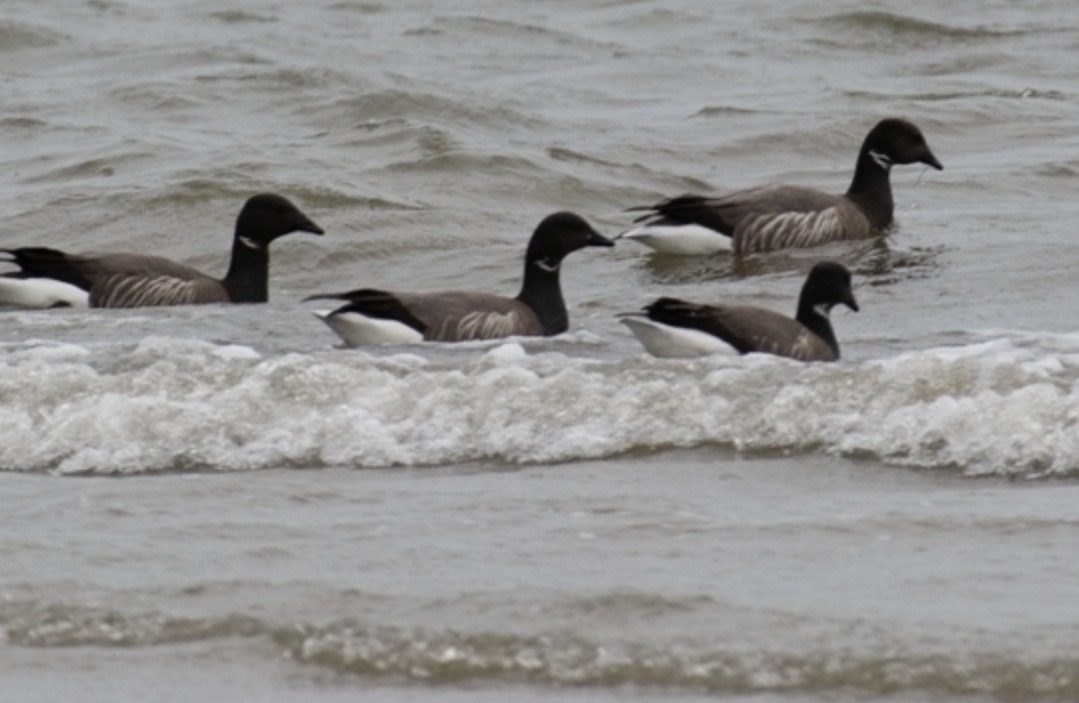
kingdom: Animalia
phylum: Chordata
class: Aves
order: Anseriformes
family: Anatidae
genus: Branta
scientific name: Branta bernicla
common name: Knortegås
